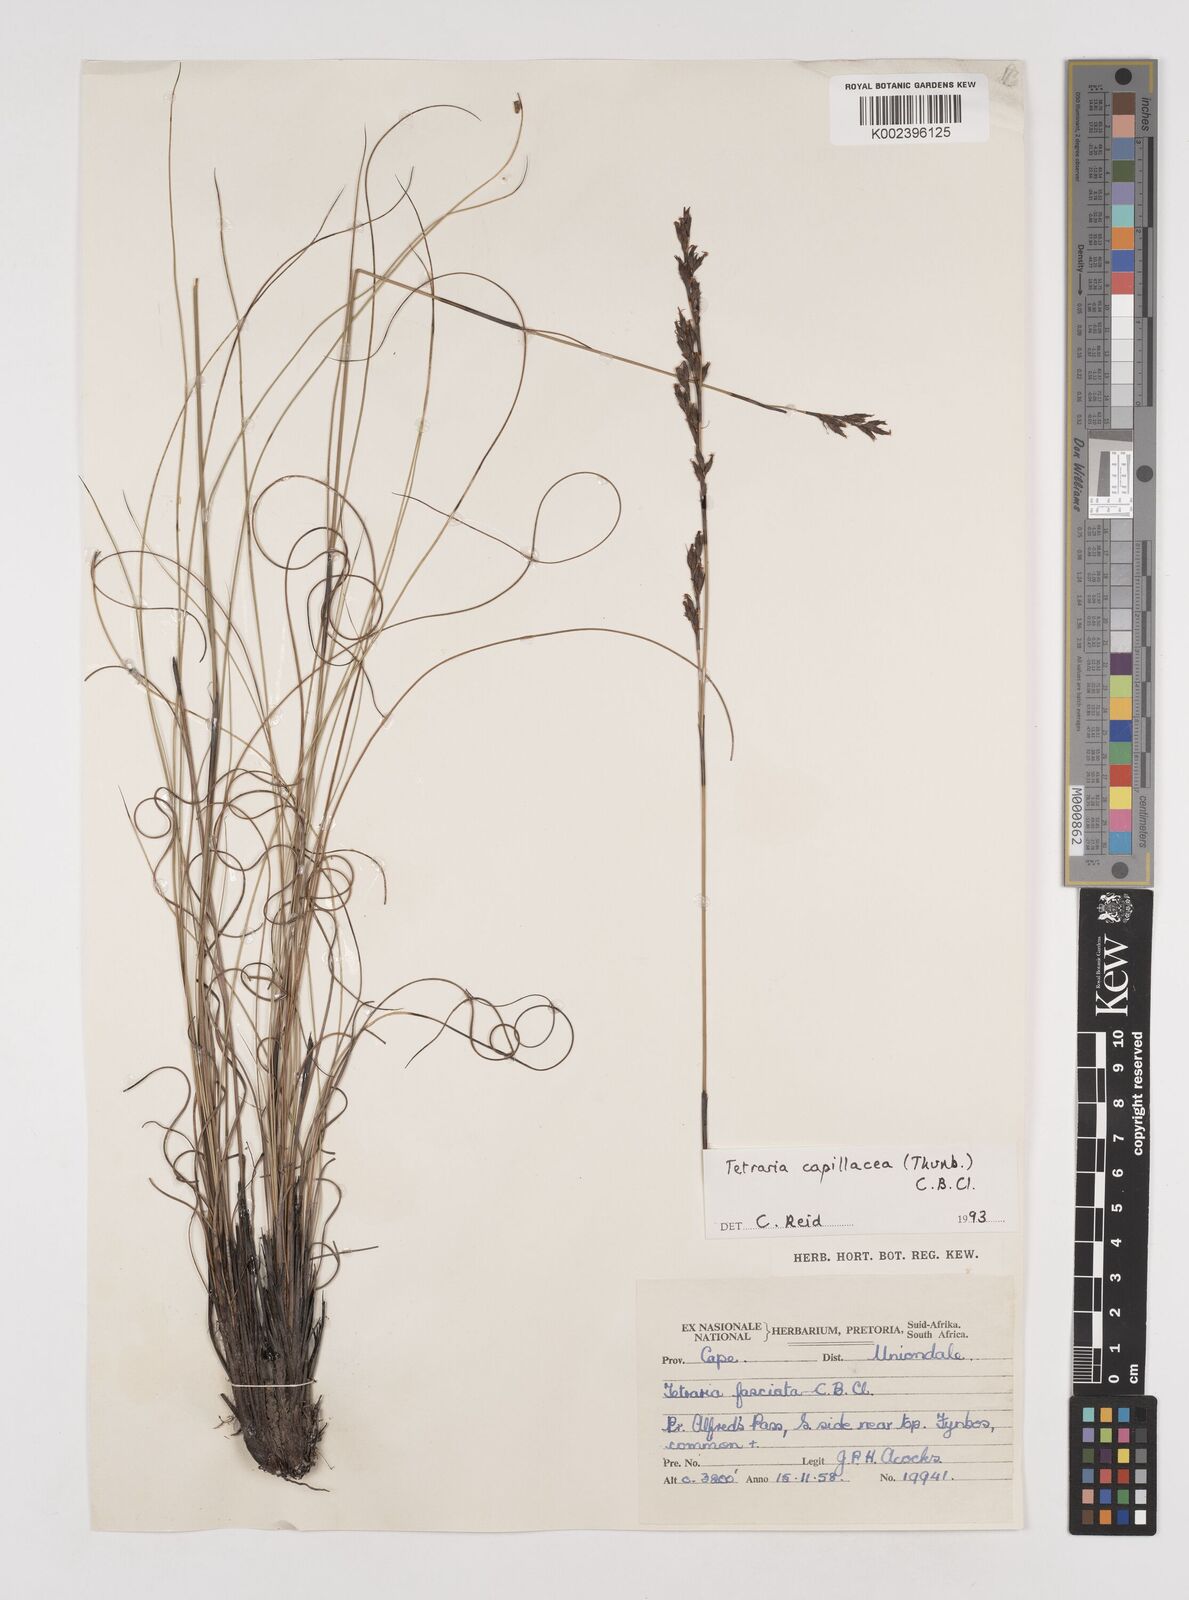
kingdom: Plantae
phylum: Tracheophyta
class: Liliopsida
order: Poales
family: Cyperaceae
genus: Tetraria
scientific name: Tetraria capillacea
